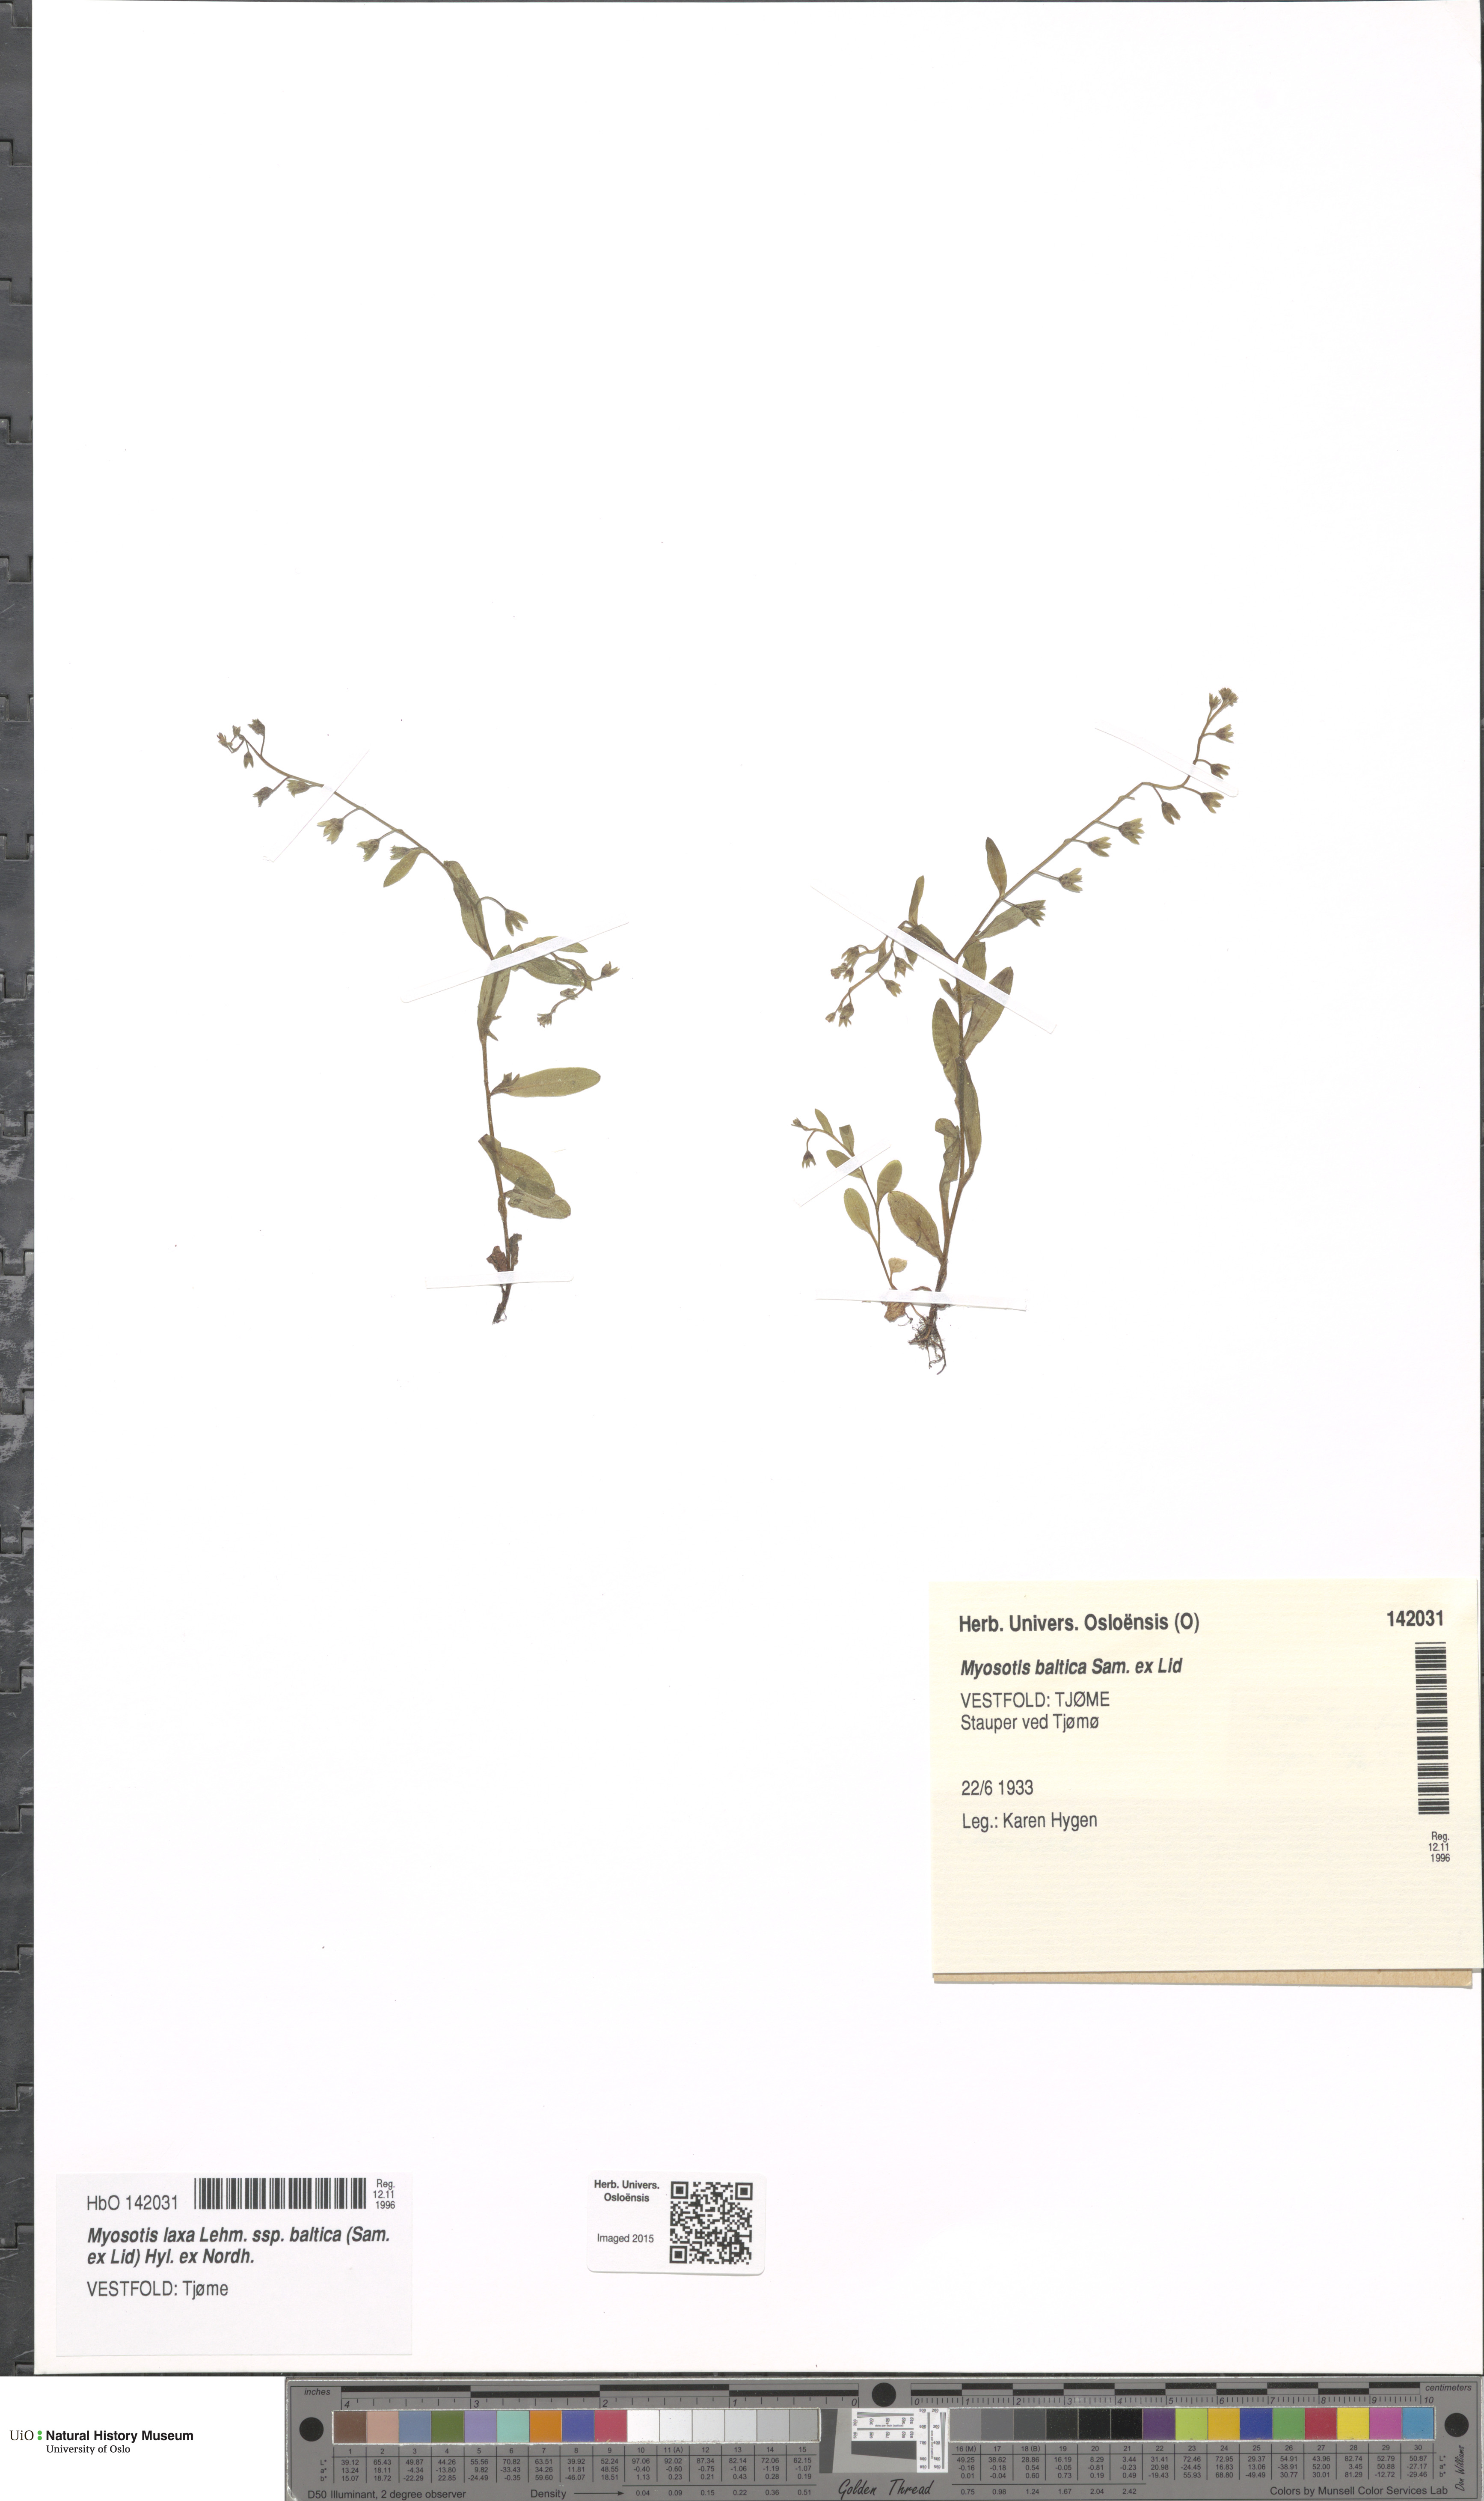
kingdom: Plantae
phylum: Tracheophyta
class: Magnoliopsida
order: Boraginales
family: Boraginaceae
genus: Myosotis
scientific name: Myosotis laxa
